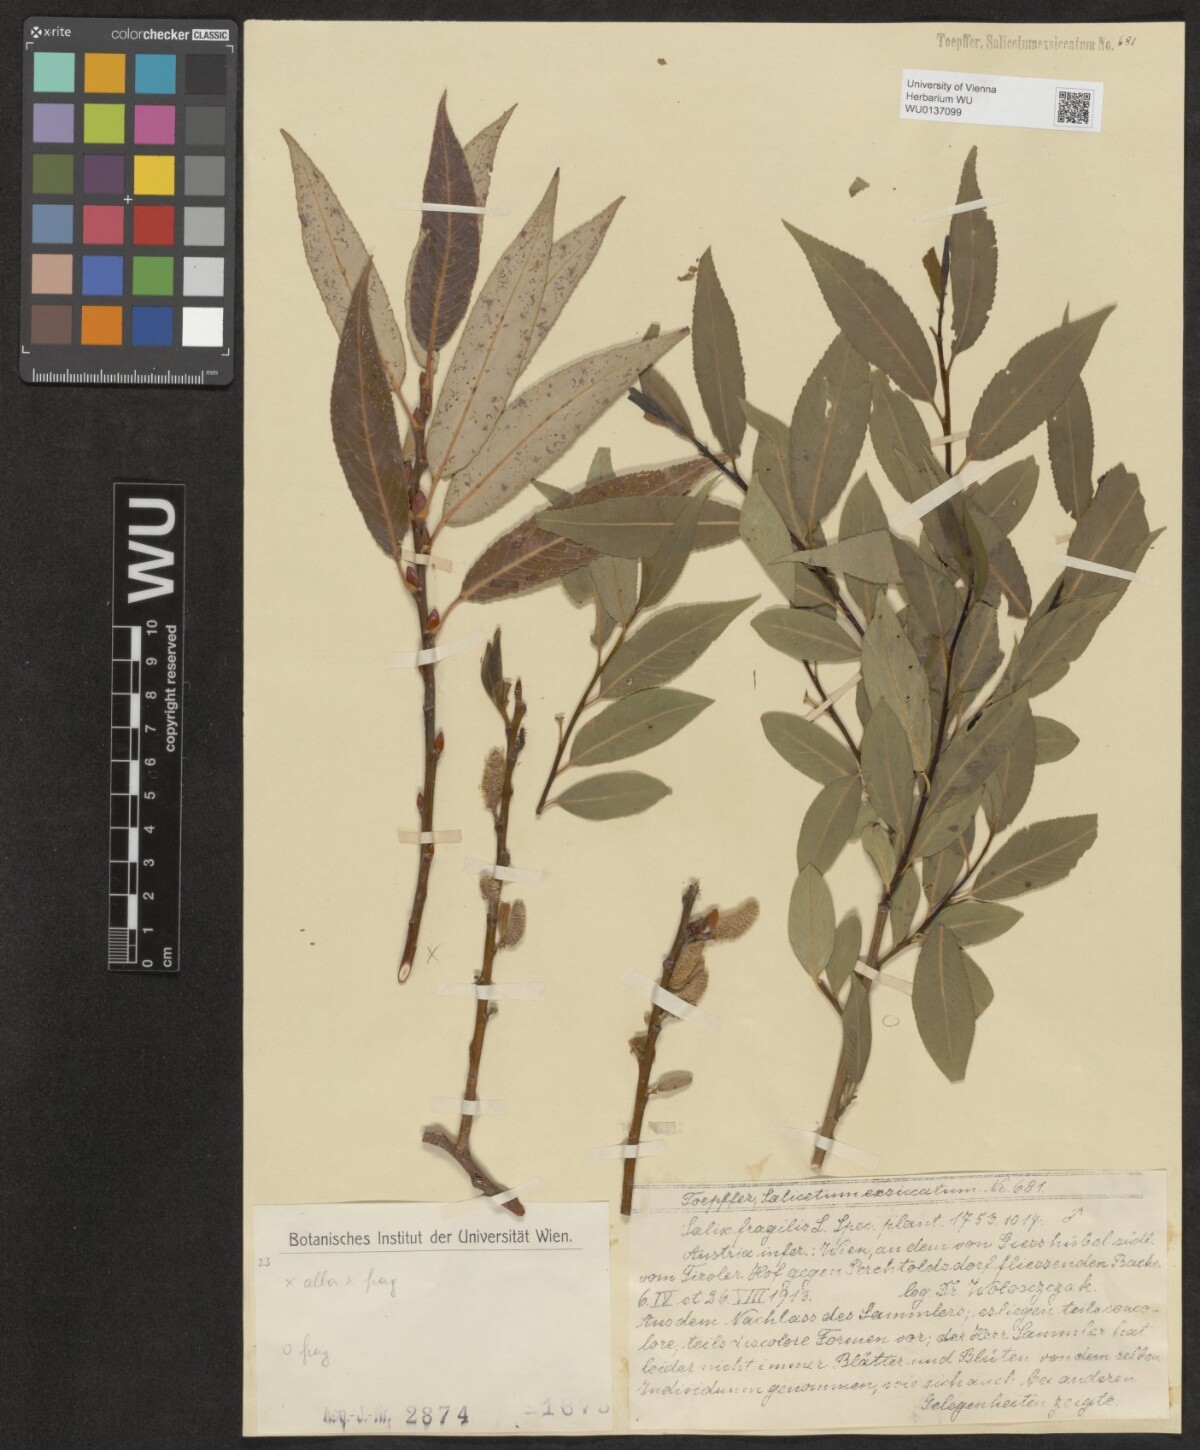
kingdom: Plantae
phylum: Tracheophyta
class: Magnoliopsida
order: Malpighiales
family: Salicaceae
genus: Salix
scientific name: Salix fragilis
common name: Crack willow
